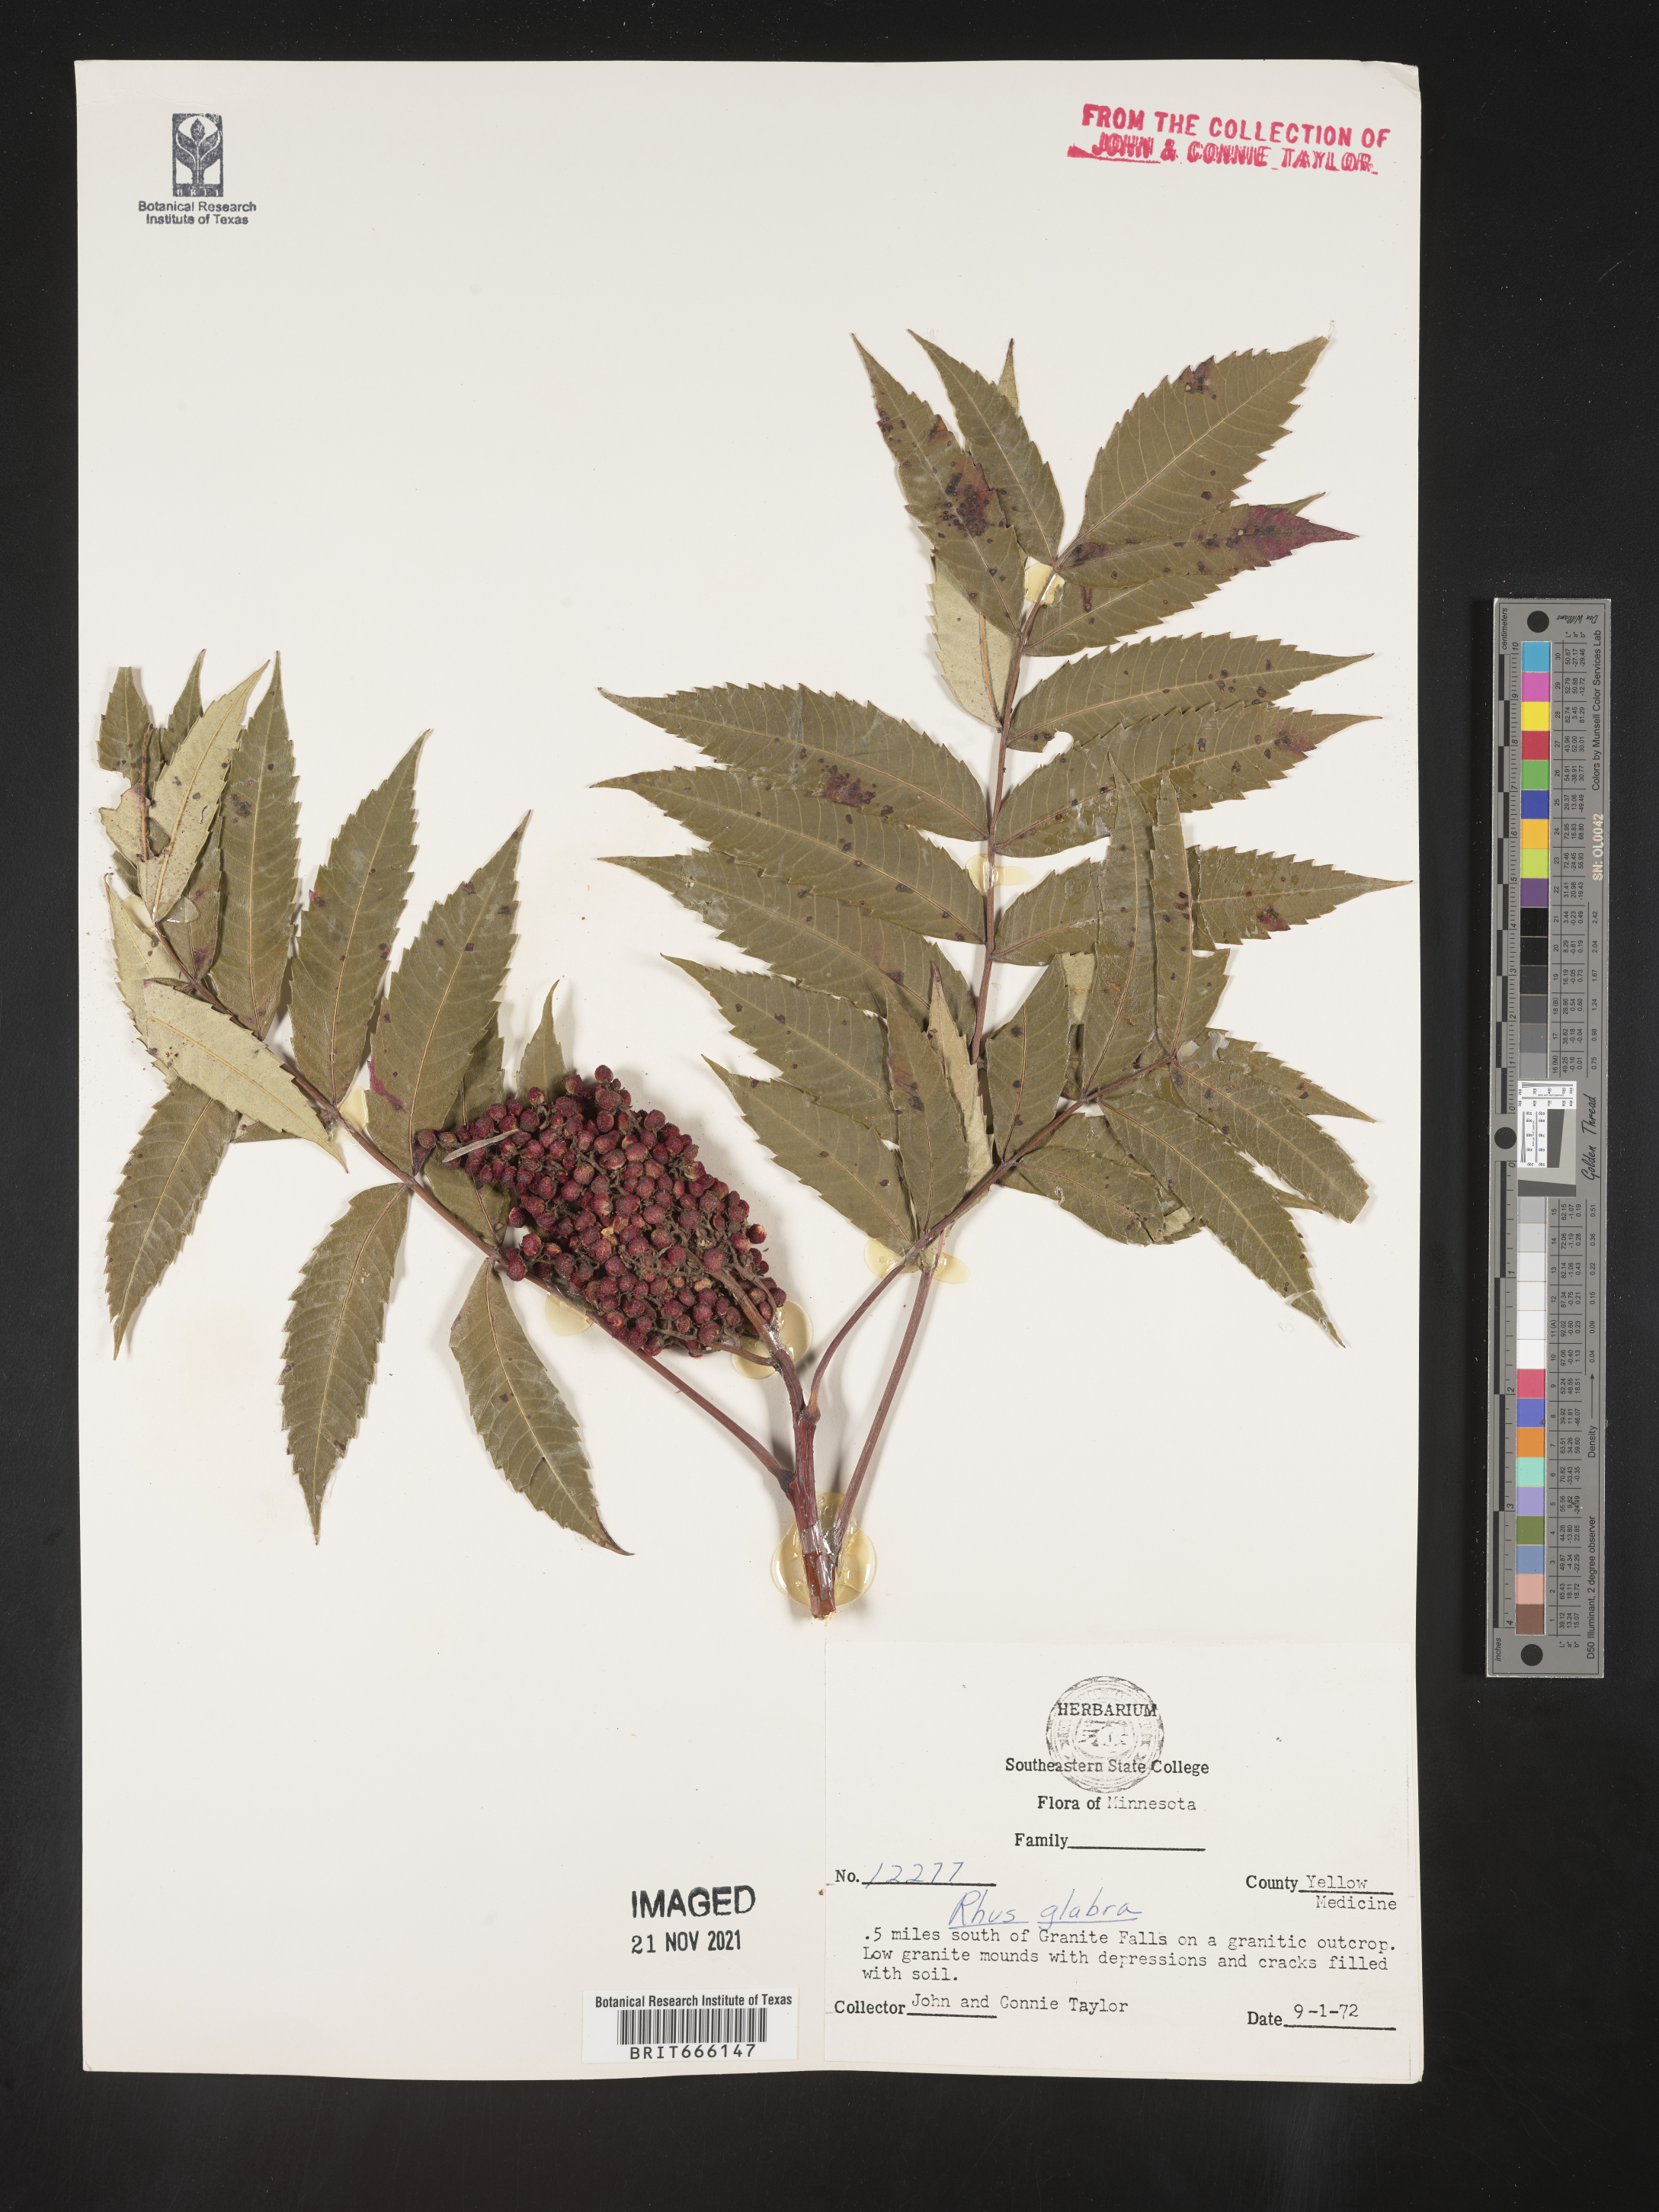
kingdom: Plantae
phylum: Tracheophyta
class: Magnoliopsida
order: Sapindales
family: Anacardiaceae
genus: Rhus
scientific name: Rhus glabra
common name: Scarlet sumac
